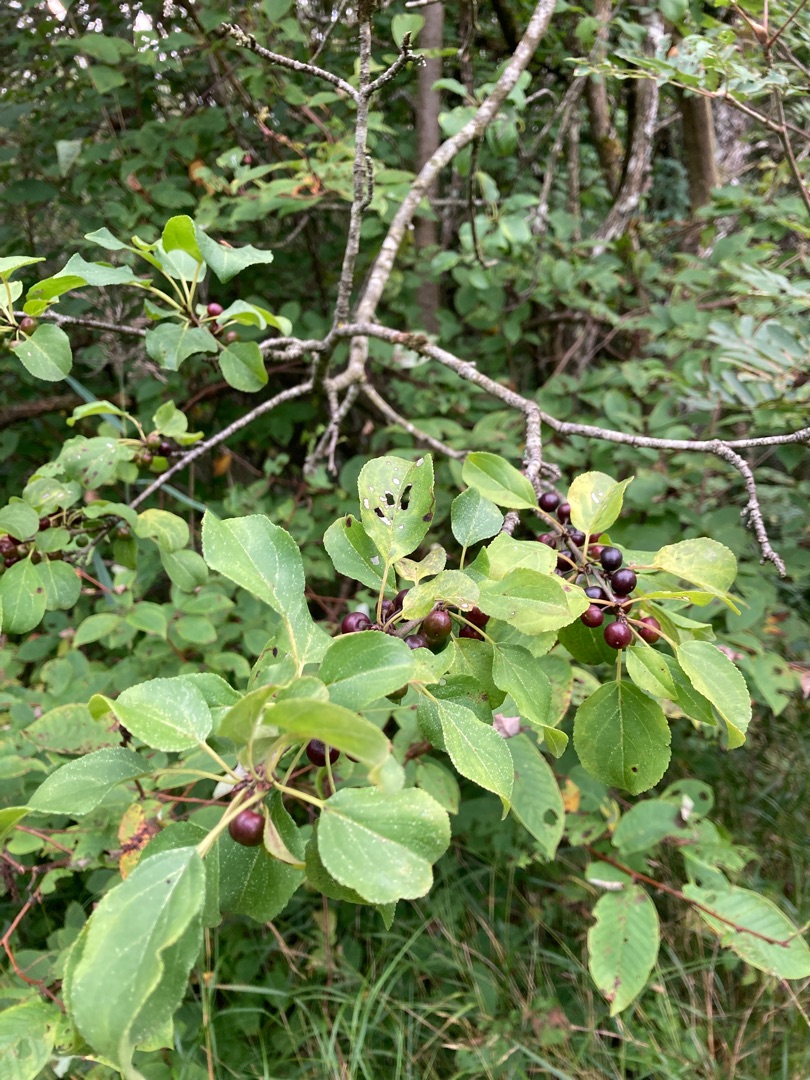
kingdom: Plantae
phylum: Tracheophyta
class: Magnoliopsida
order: Rosales
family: Rhamnaceae
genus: Rhamnus
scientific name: Rhamnus cathartica
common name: Vrietorn
